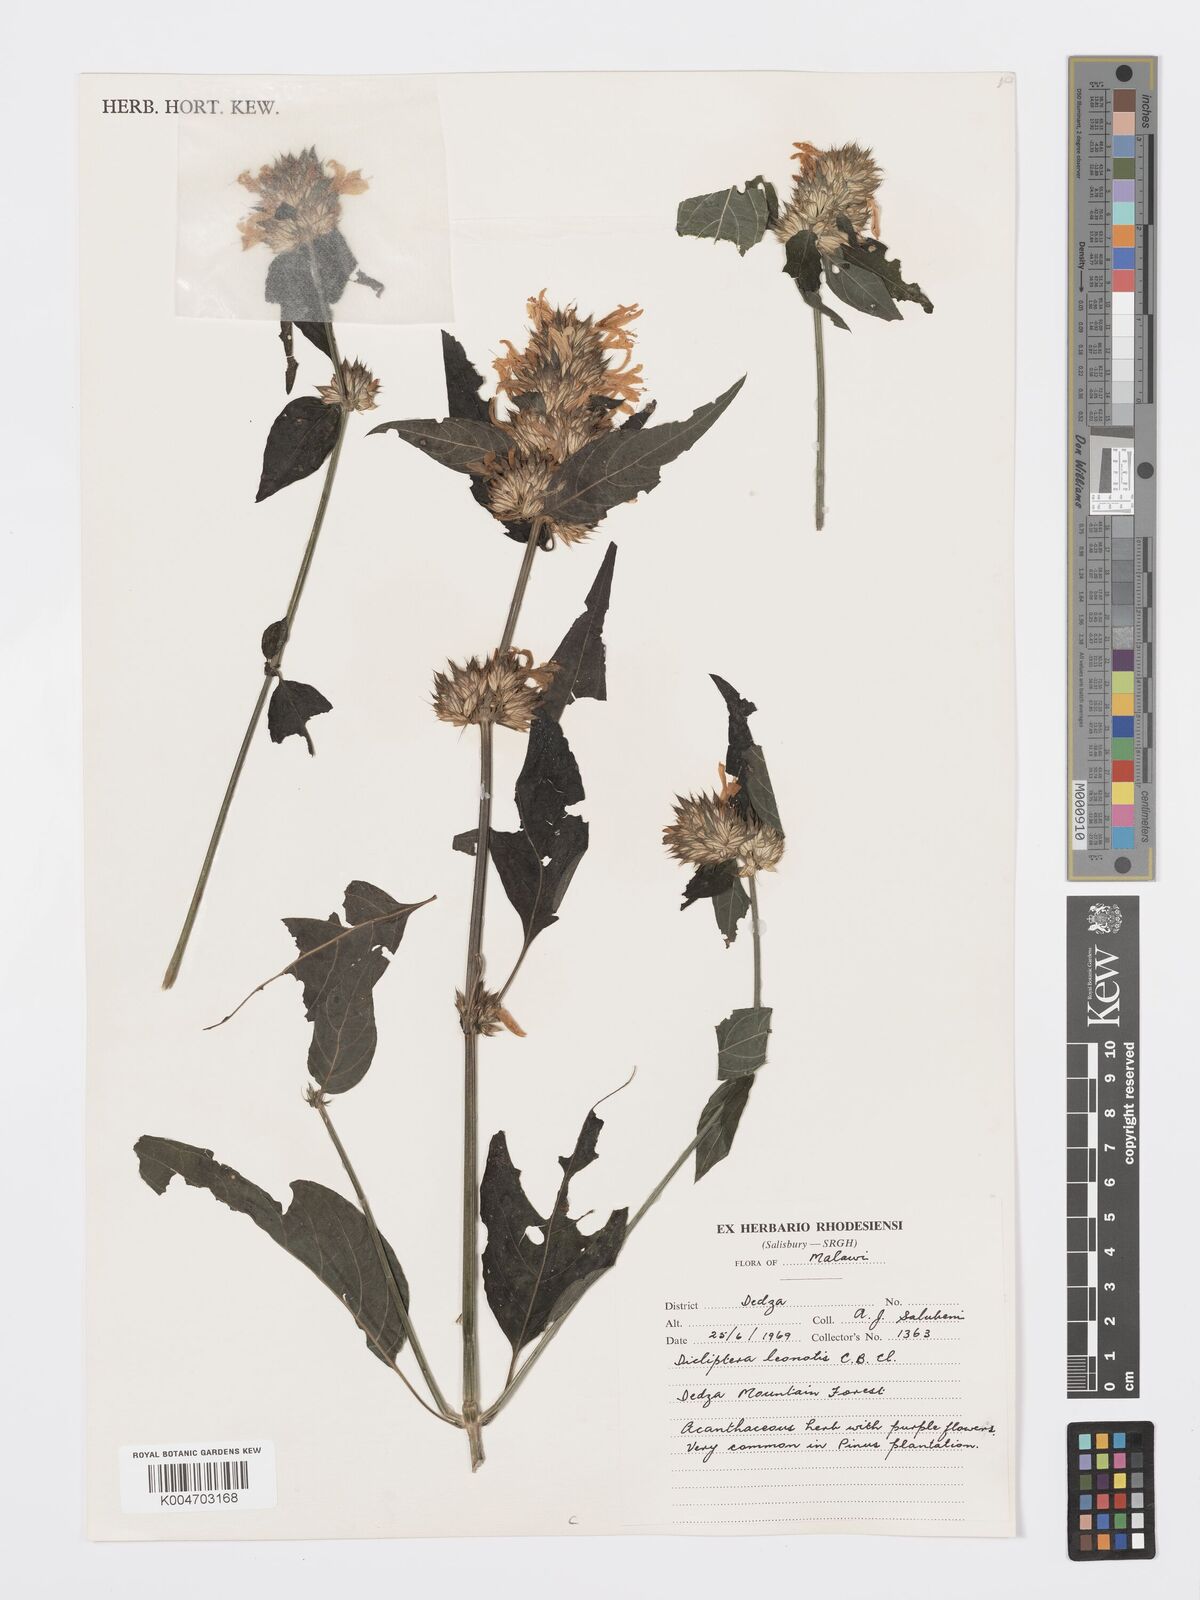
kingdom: Plantae
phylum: Tracheophyta
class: Magnoliopsida
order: Lamiales
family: Acanthaceae
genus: Dicliptera
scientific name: Dicliptera clinopodia
